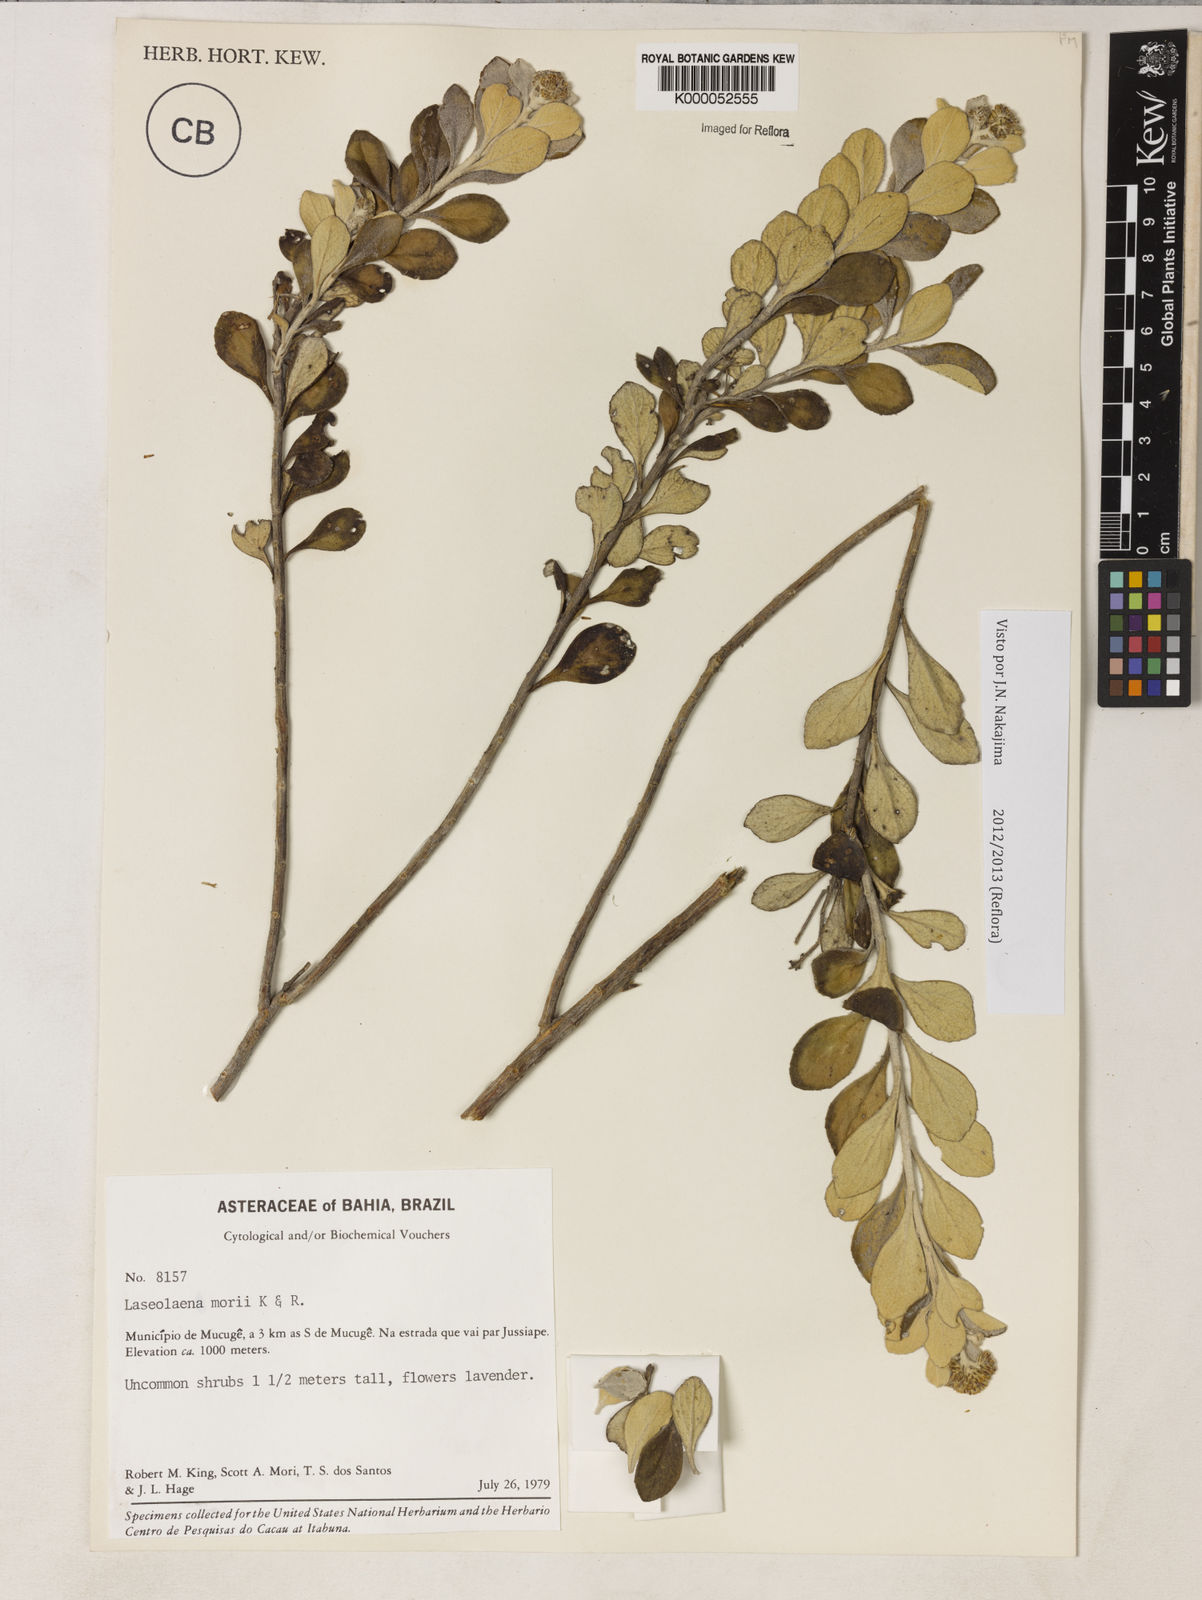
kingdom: Plantae
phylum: Tracheophyta
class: Magnoliopsida
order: Asterales
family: Asteraceae
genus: Lasiolaena
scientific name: Lasiolaena morii
